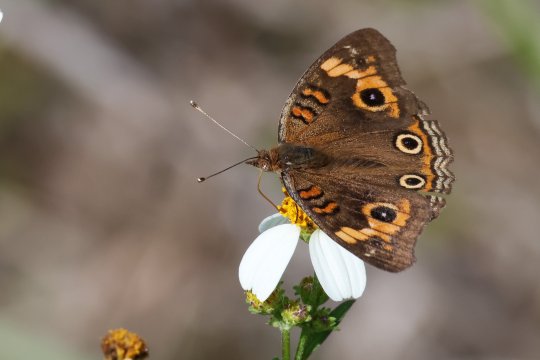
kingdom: Animalia
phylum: Arthropoda
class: Insecta
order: Lepidoptera
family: Nymphalidae
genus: Junonia
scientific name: Junonia evarete
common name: Mangrove Buckeye
